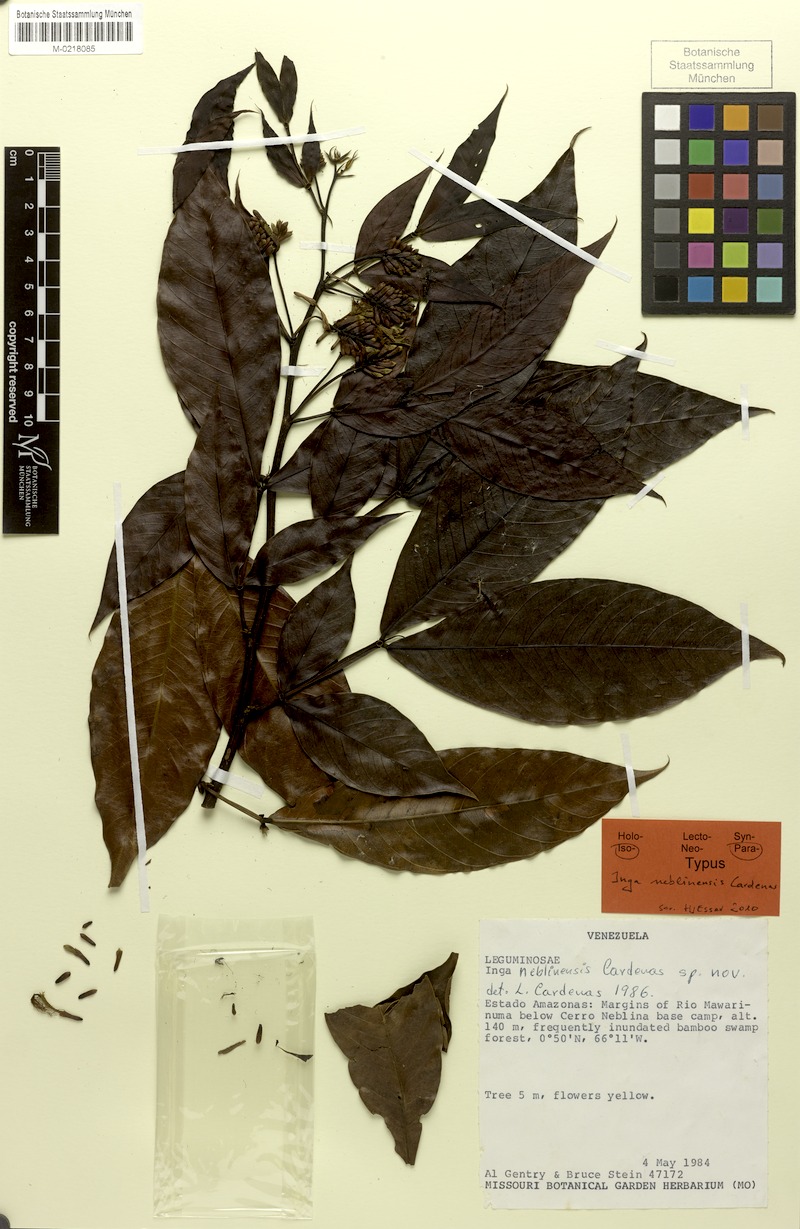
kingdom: Plantae
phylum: Tracheophyta
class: Magnoliopsida
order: Fabales
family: Fabaceae
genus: Inga
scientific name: Inga neblinensis
